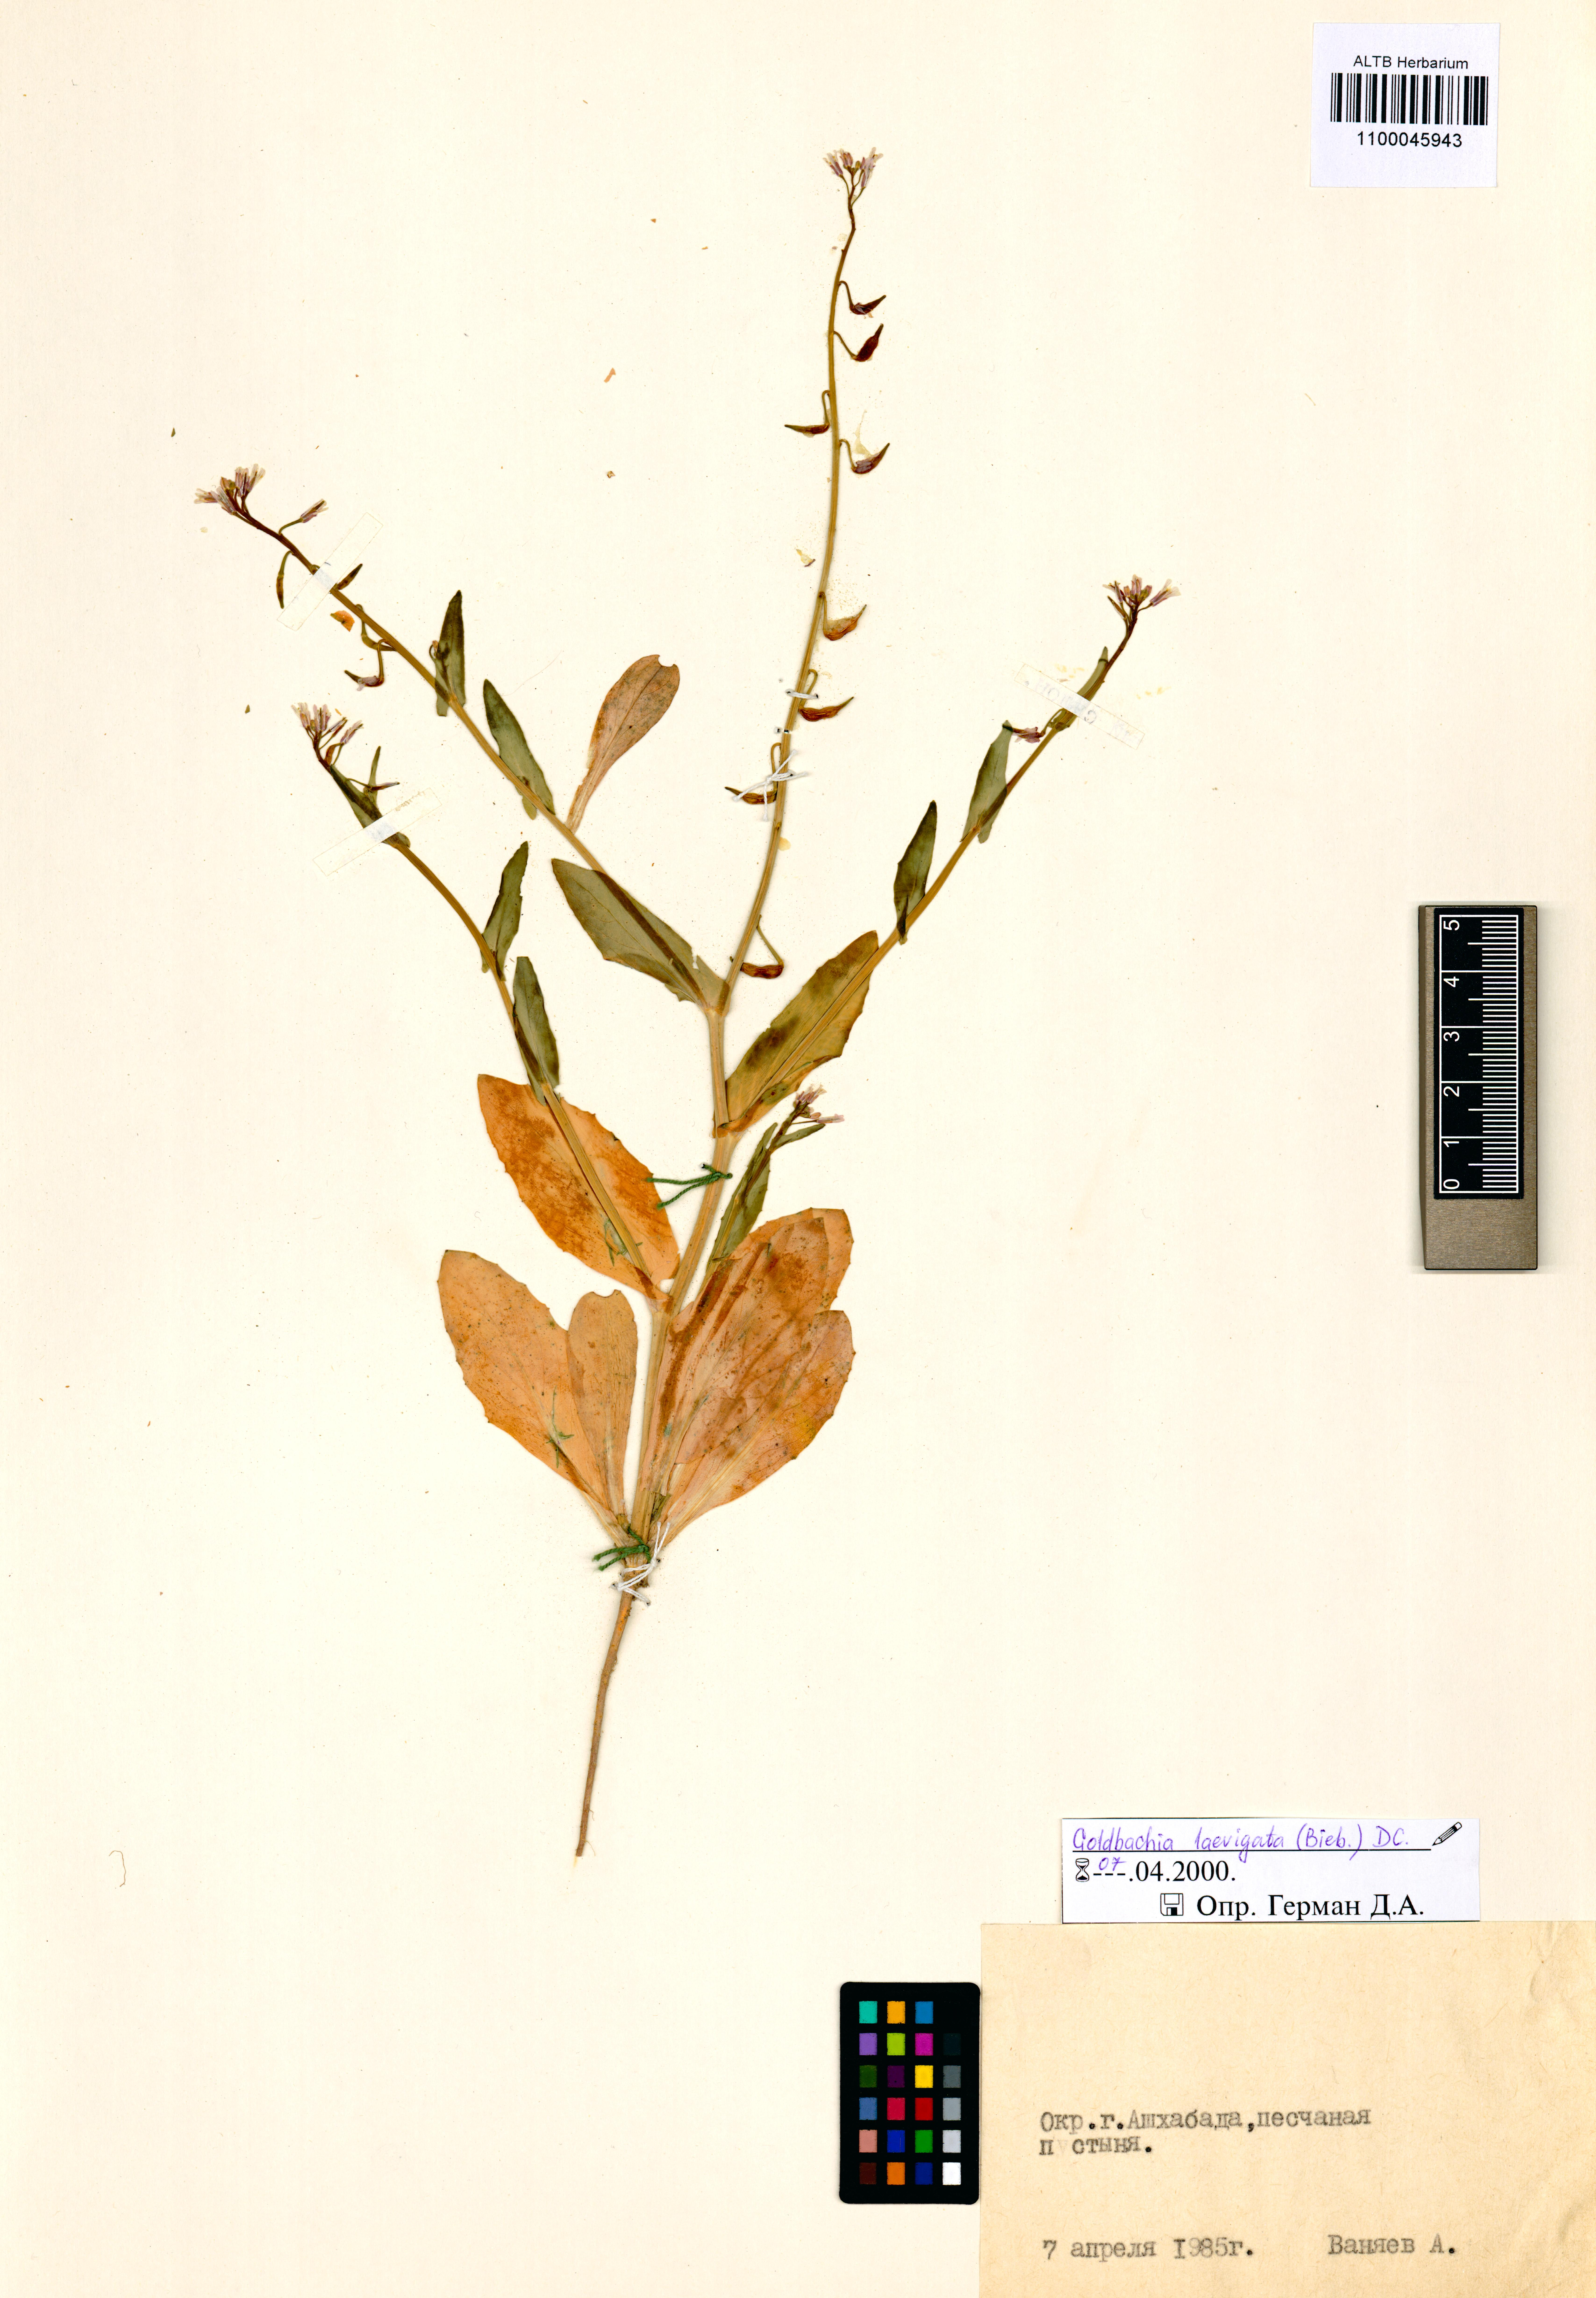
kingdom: Plantae
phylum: Tracheophyta
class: Magnoliopsida
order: Brassicales
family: Brassicaceae
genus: Goldbachia
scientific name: Goldbachia laevigata
